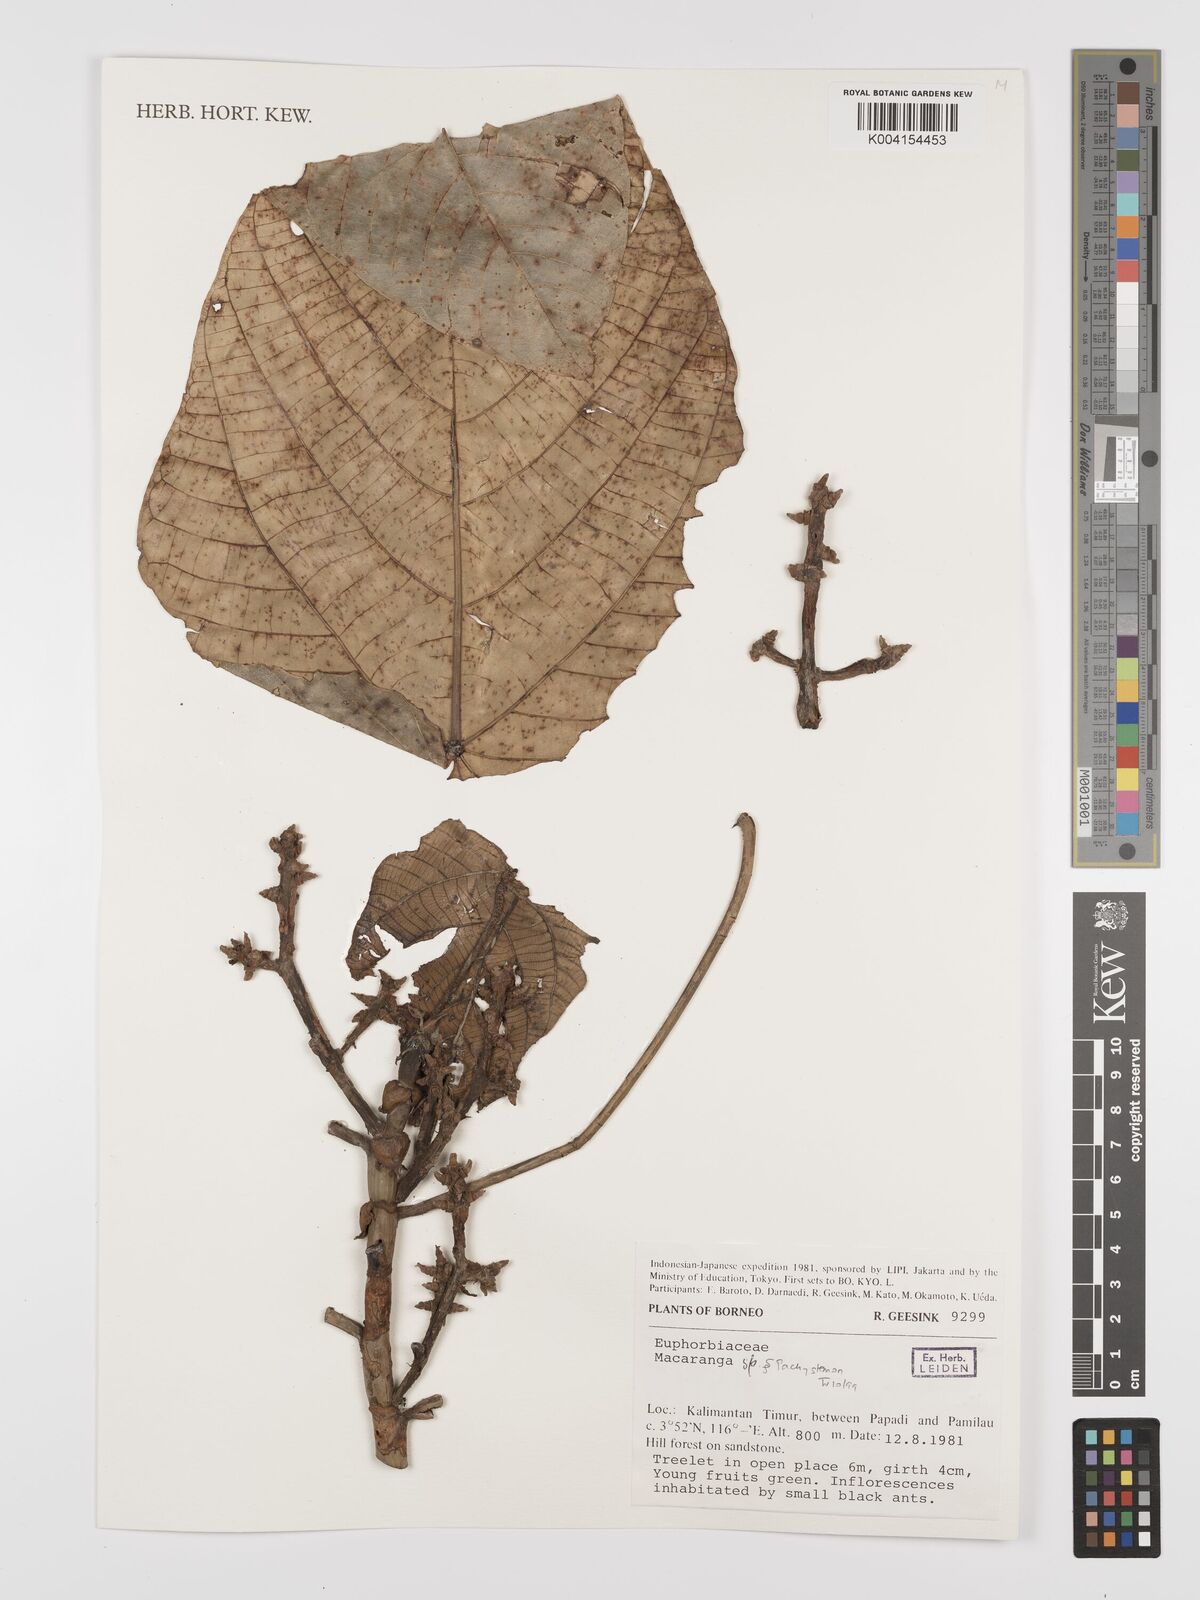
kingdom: Plantae
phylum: Tracheophyta
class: Magnoliopsida
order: Malpighiales
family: Euphorbiaceae
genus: Macaranga
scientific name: Macaranga
